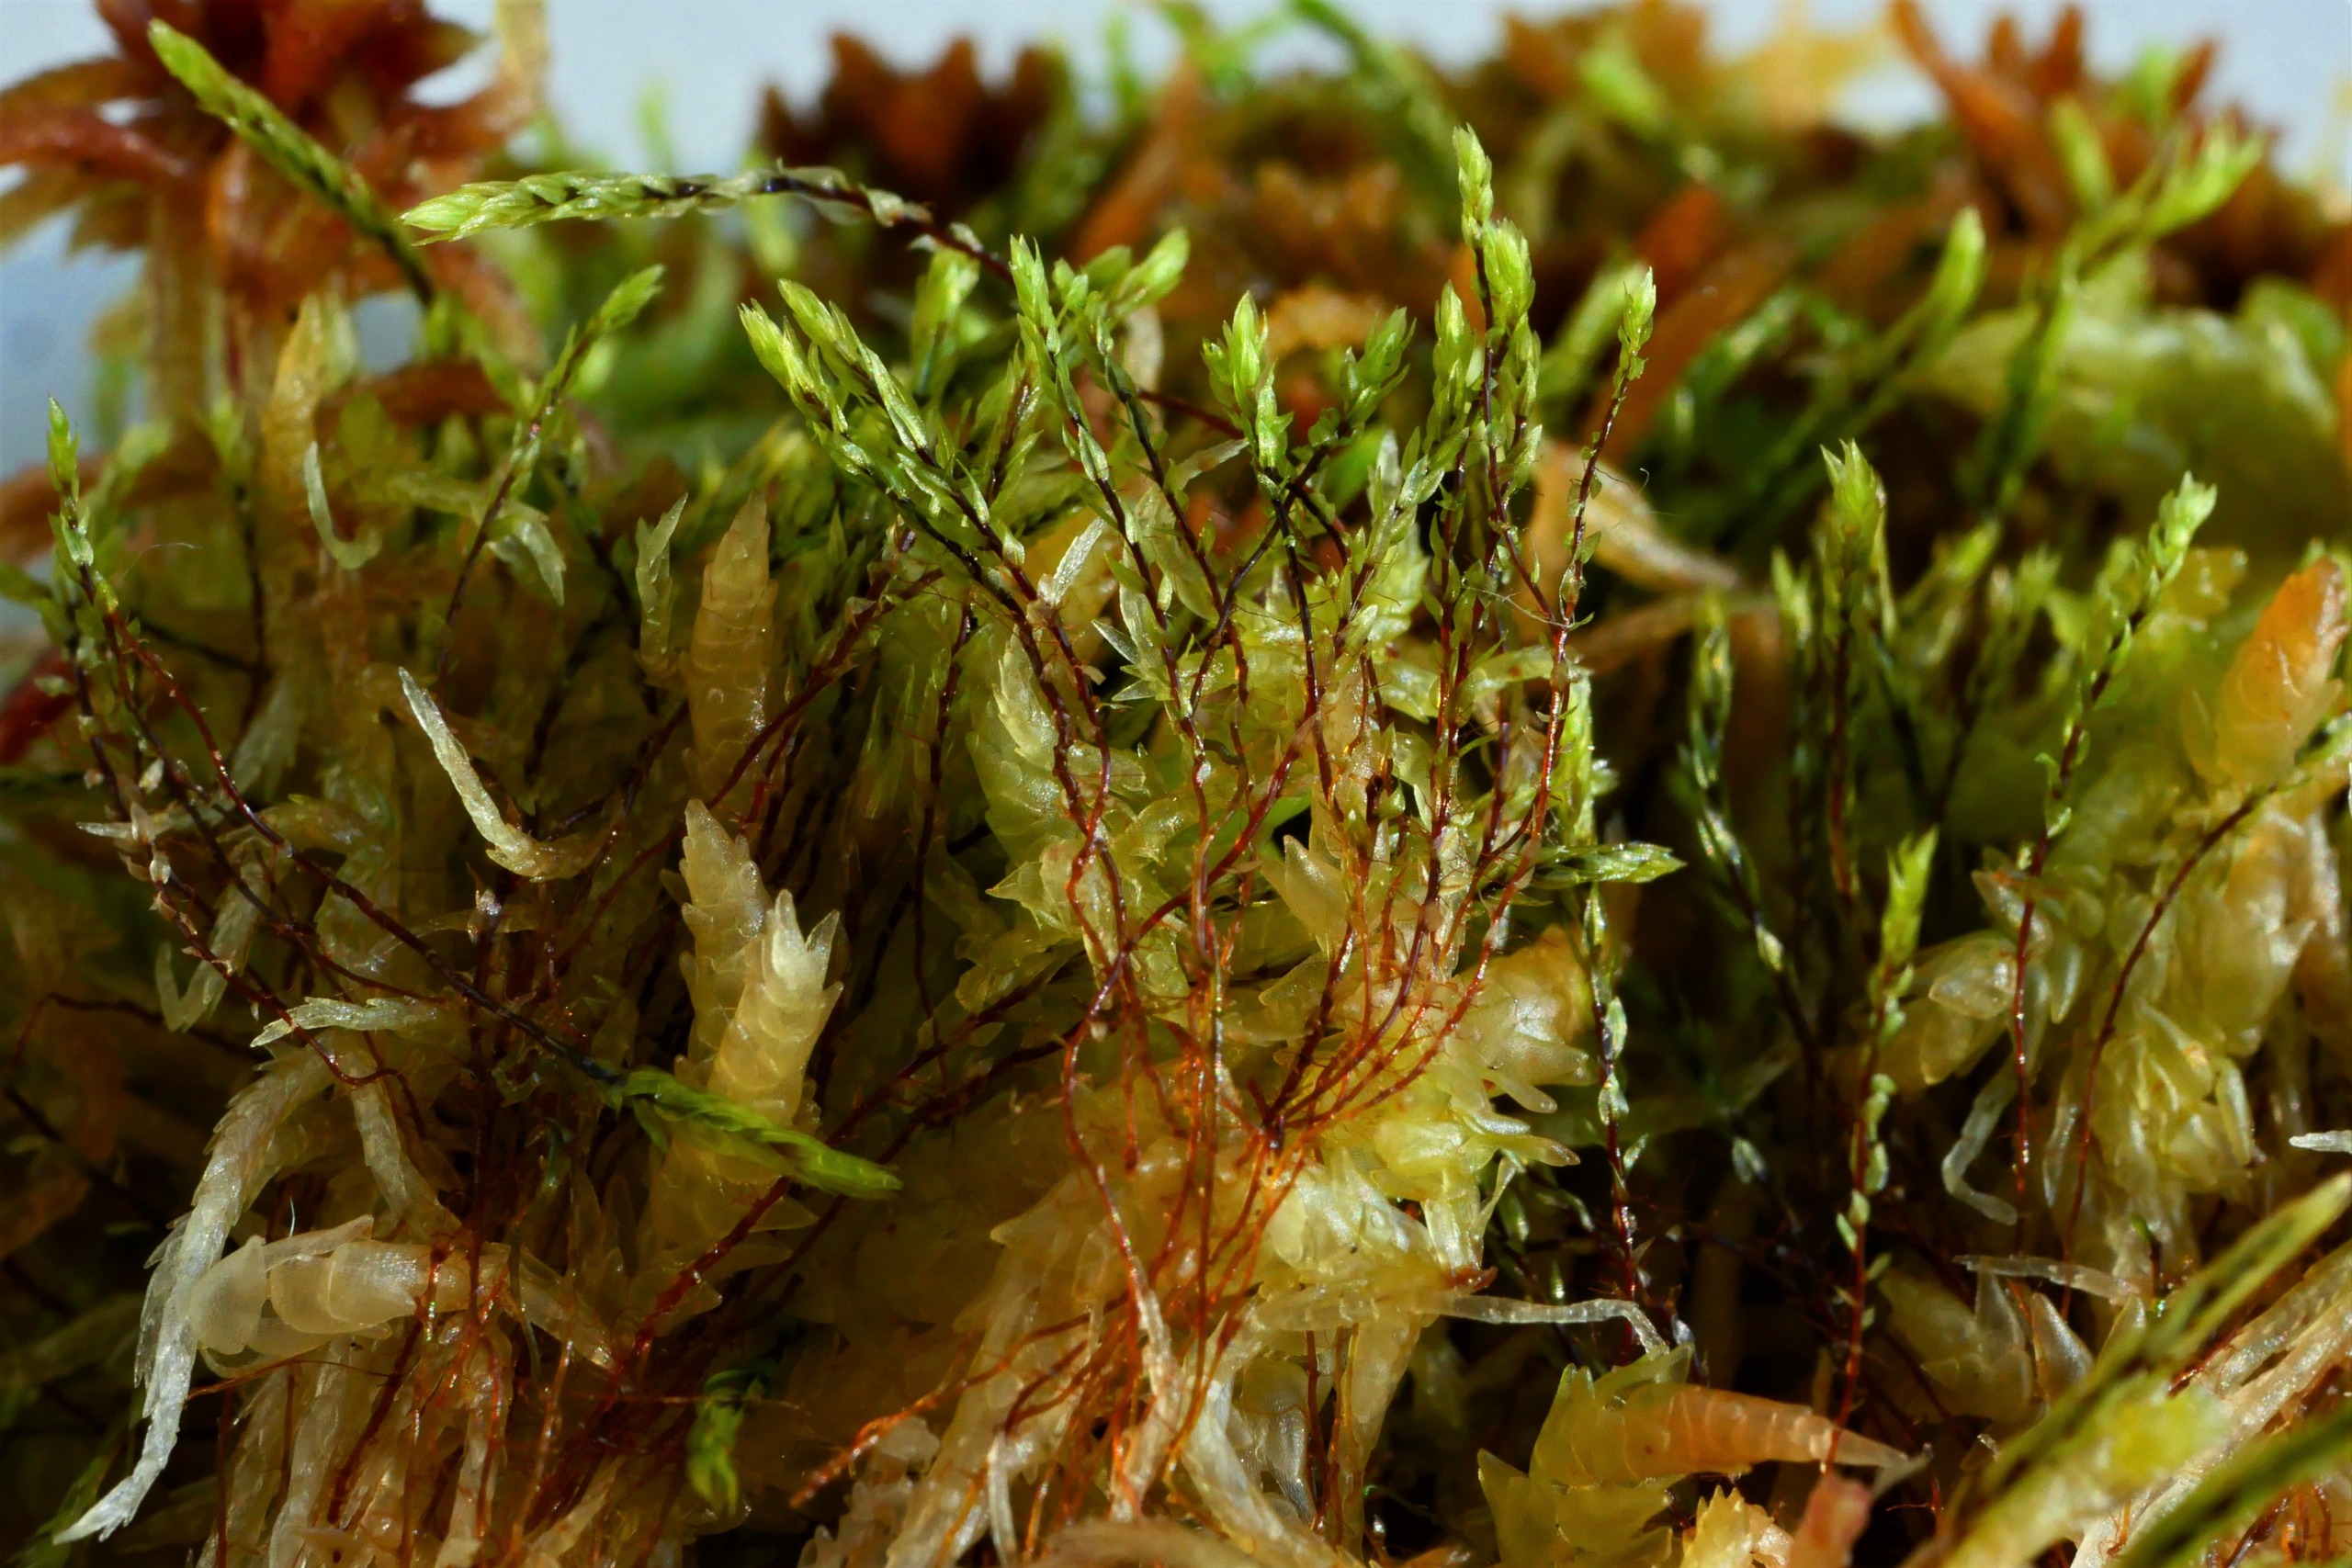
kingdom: Plantae
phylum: Bryophyta
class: Bryopsida
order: Bryales
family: Mniaceae
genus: Pohlia
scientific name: Pohlia sphagnicola
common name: Sphagnum-nikkemos
